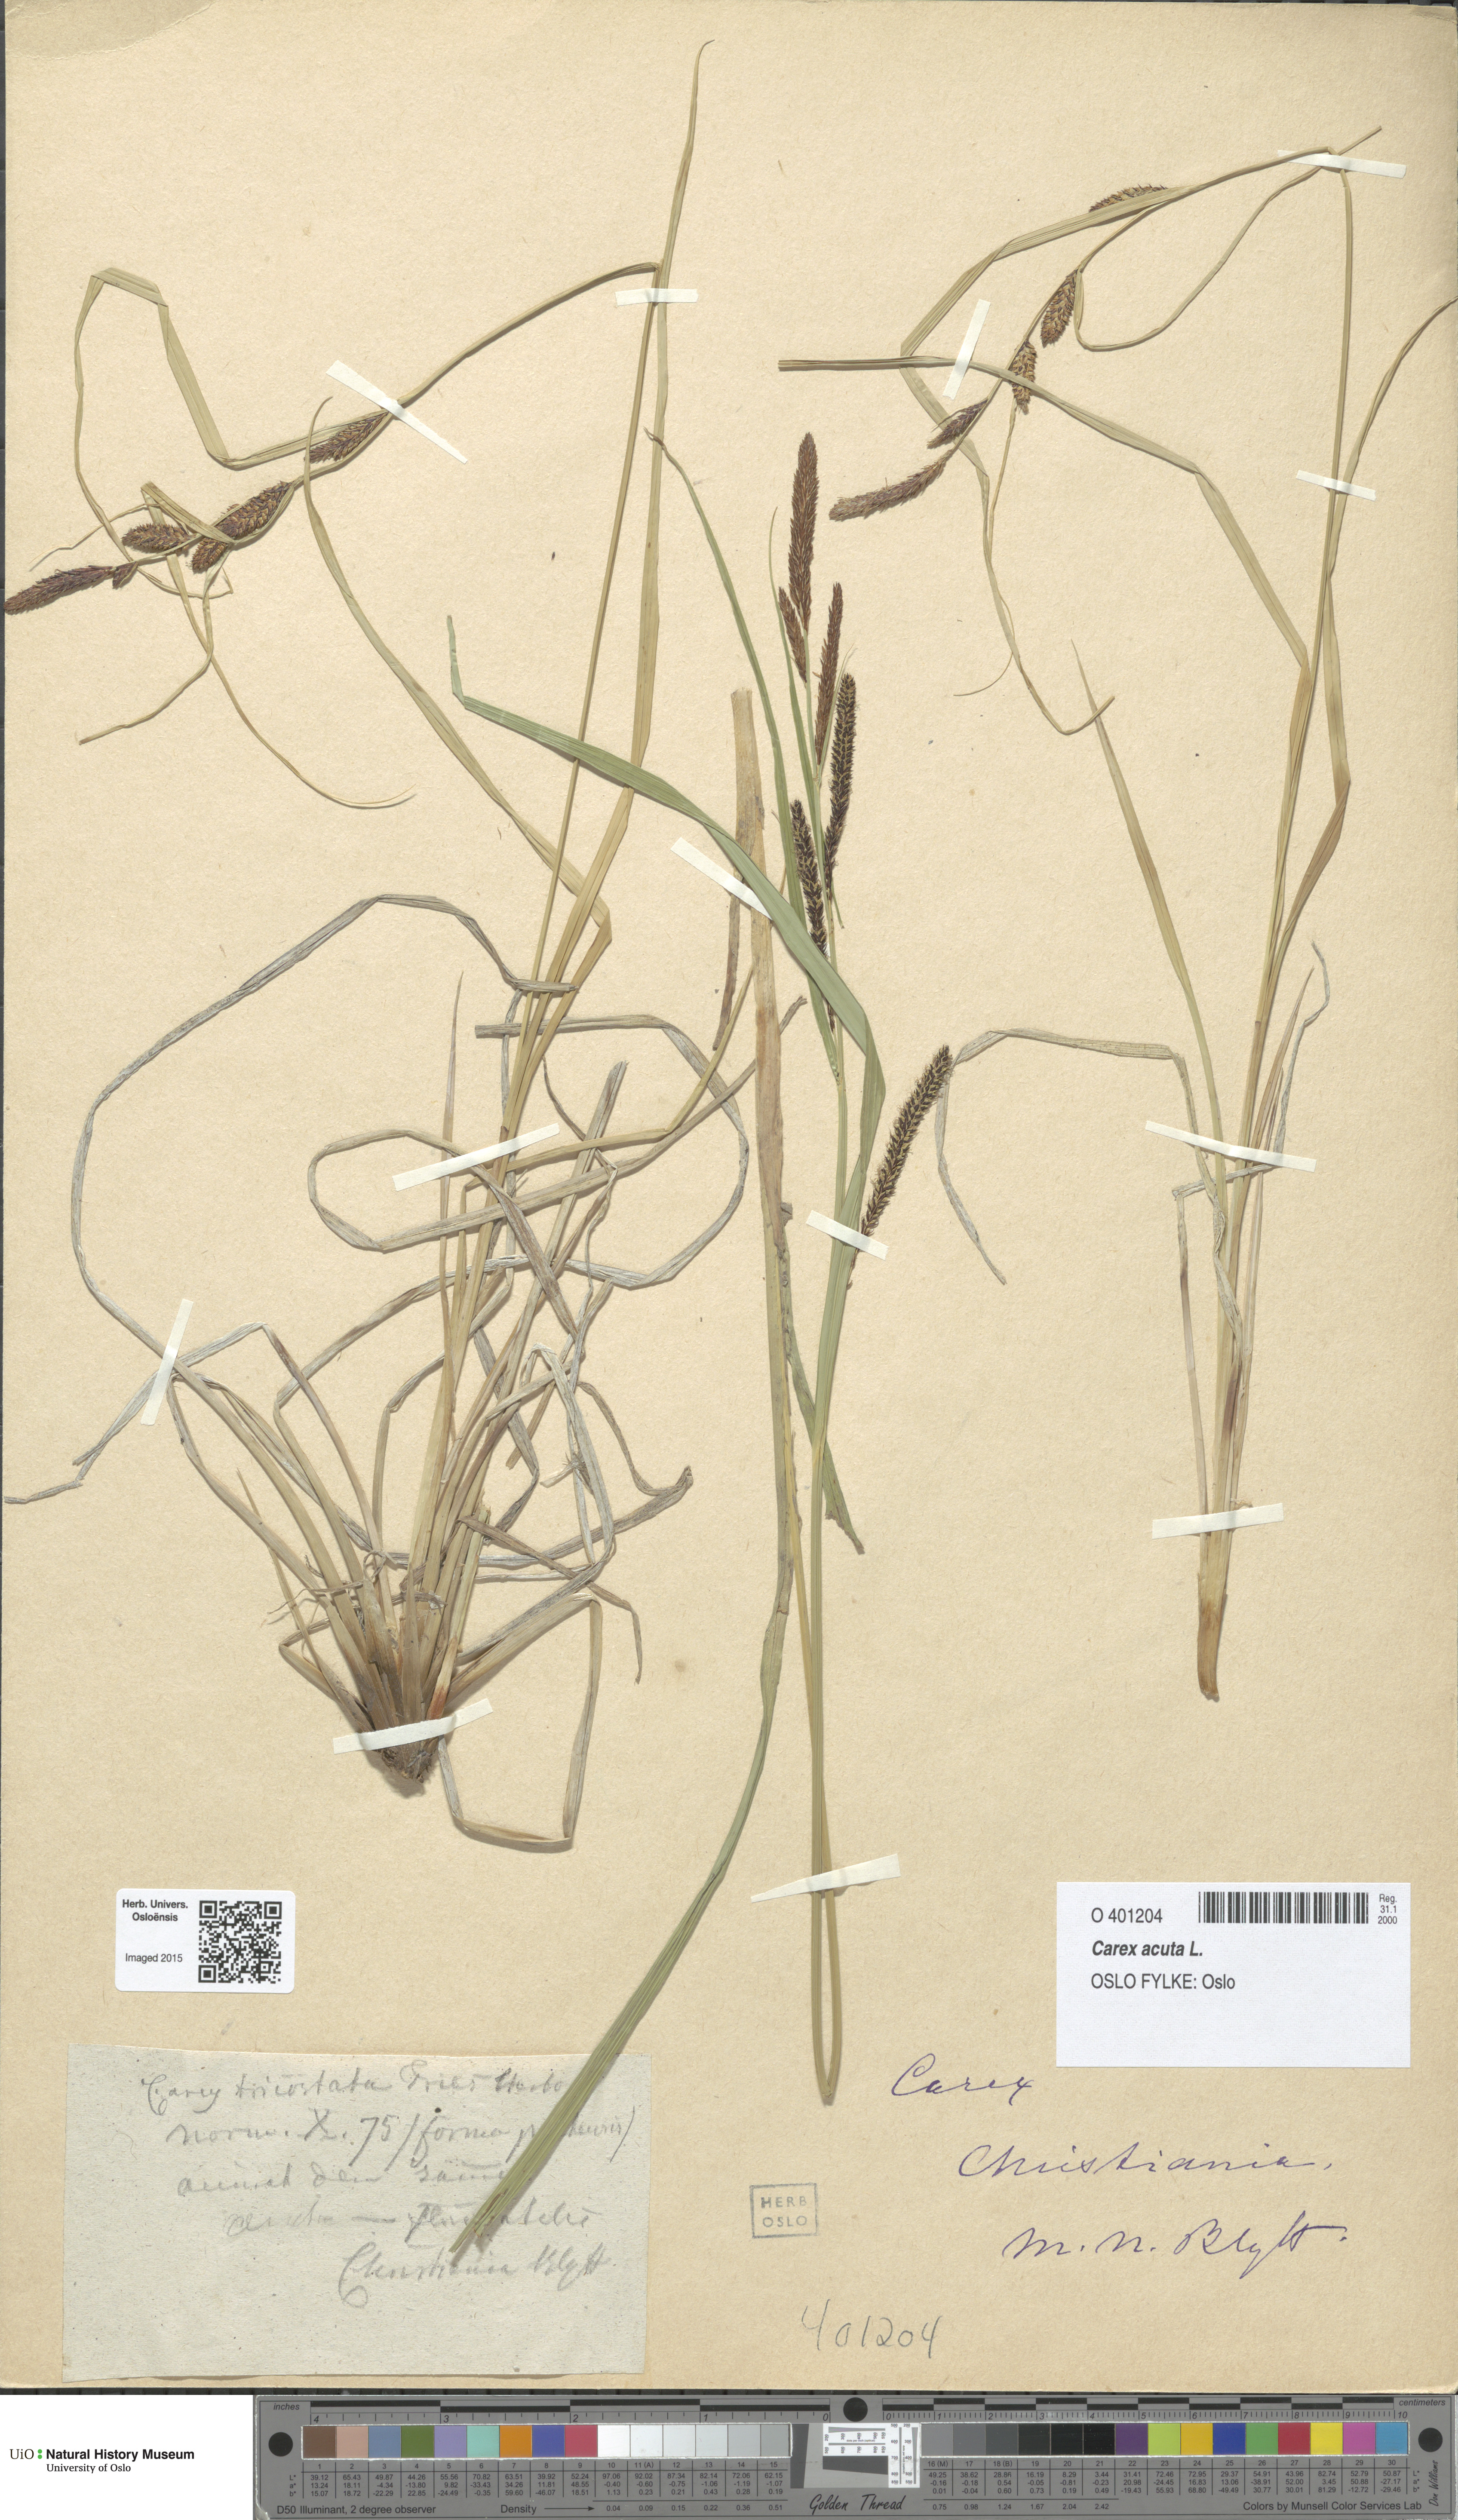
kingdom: Plantae
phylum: Tracheophyta
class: Liliopsida
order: Poales
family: Cyperaceae
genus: Carex
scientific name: Carex acuta
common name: Slender tufted-sedge
